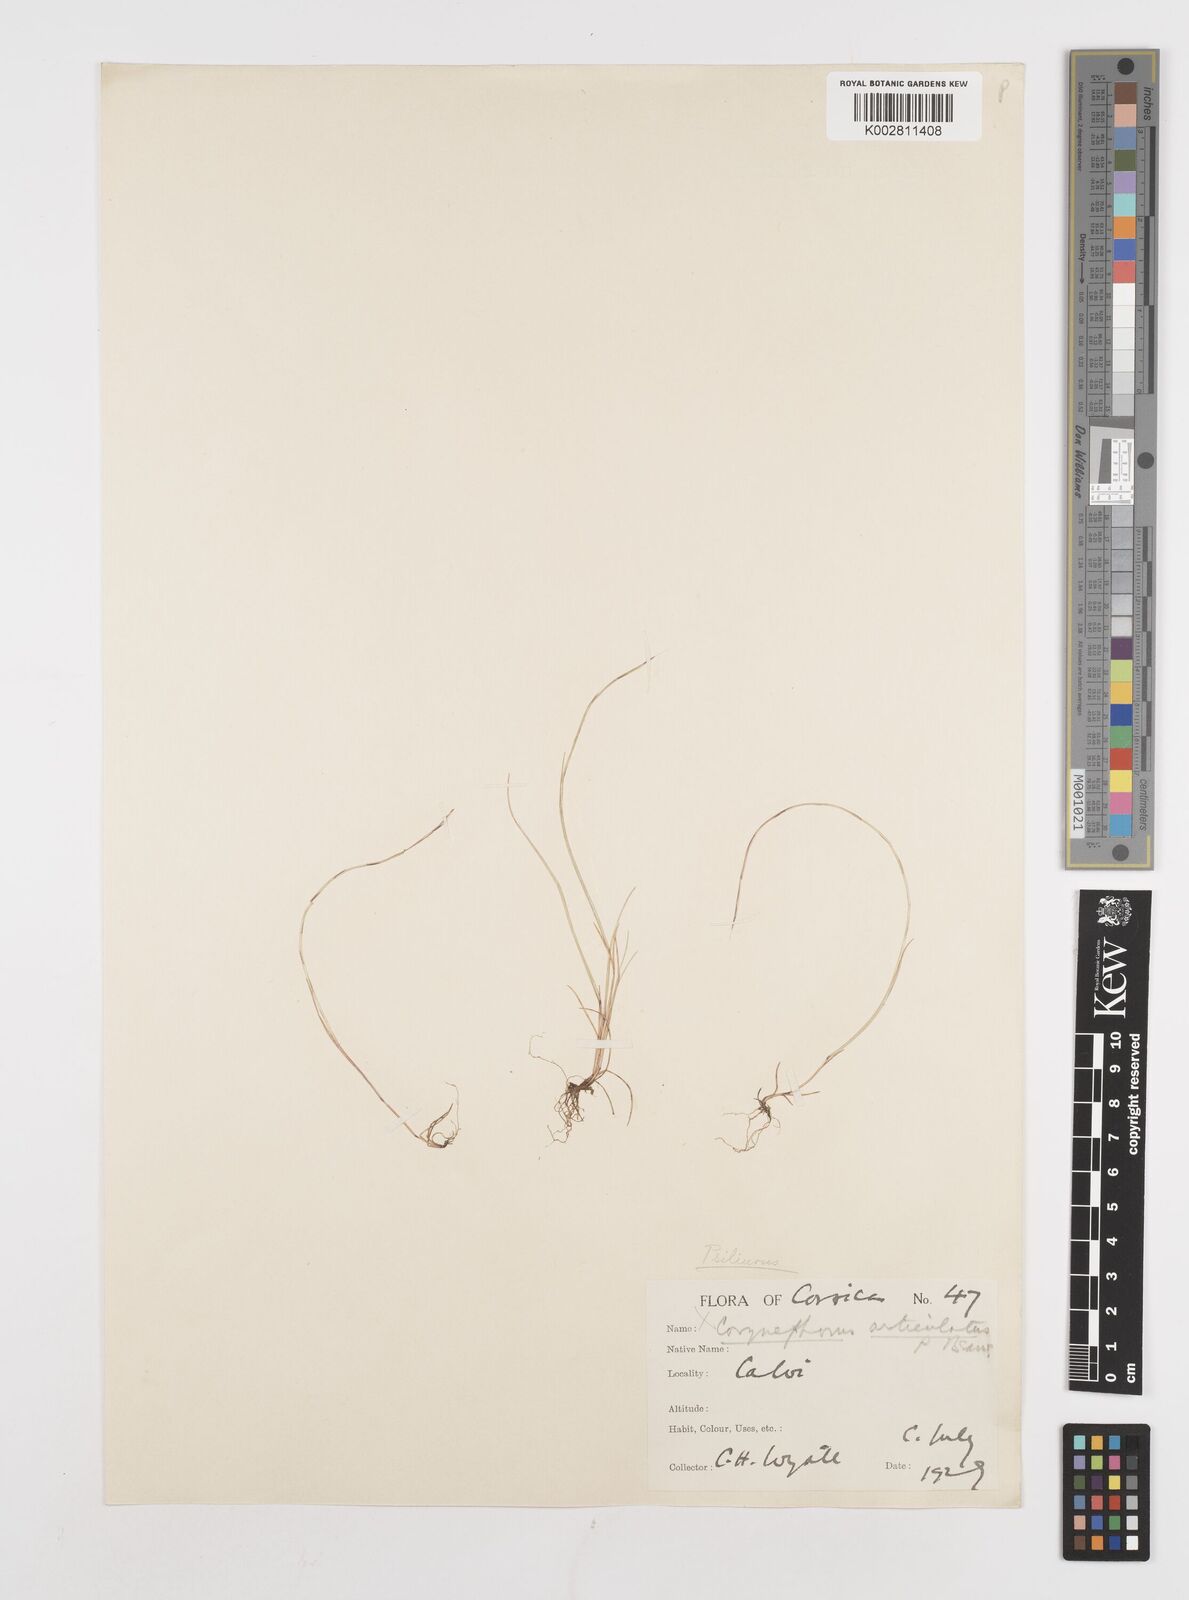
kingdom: Plantae
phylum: Tracheophyta
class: Liliopsida
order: Poales
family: Poaceae
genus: Festuca
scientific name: Festuca incurva
